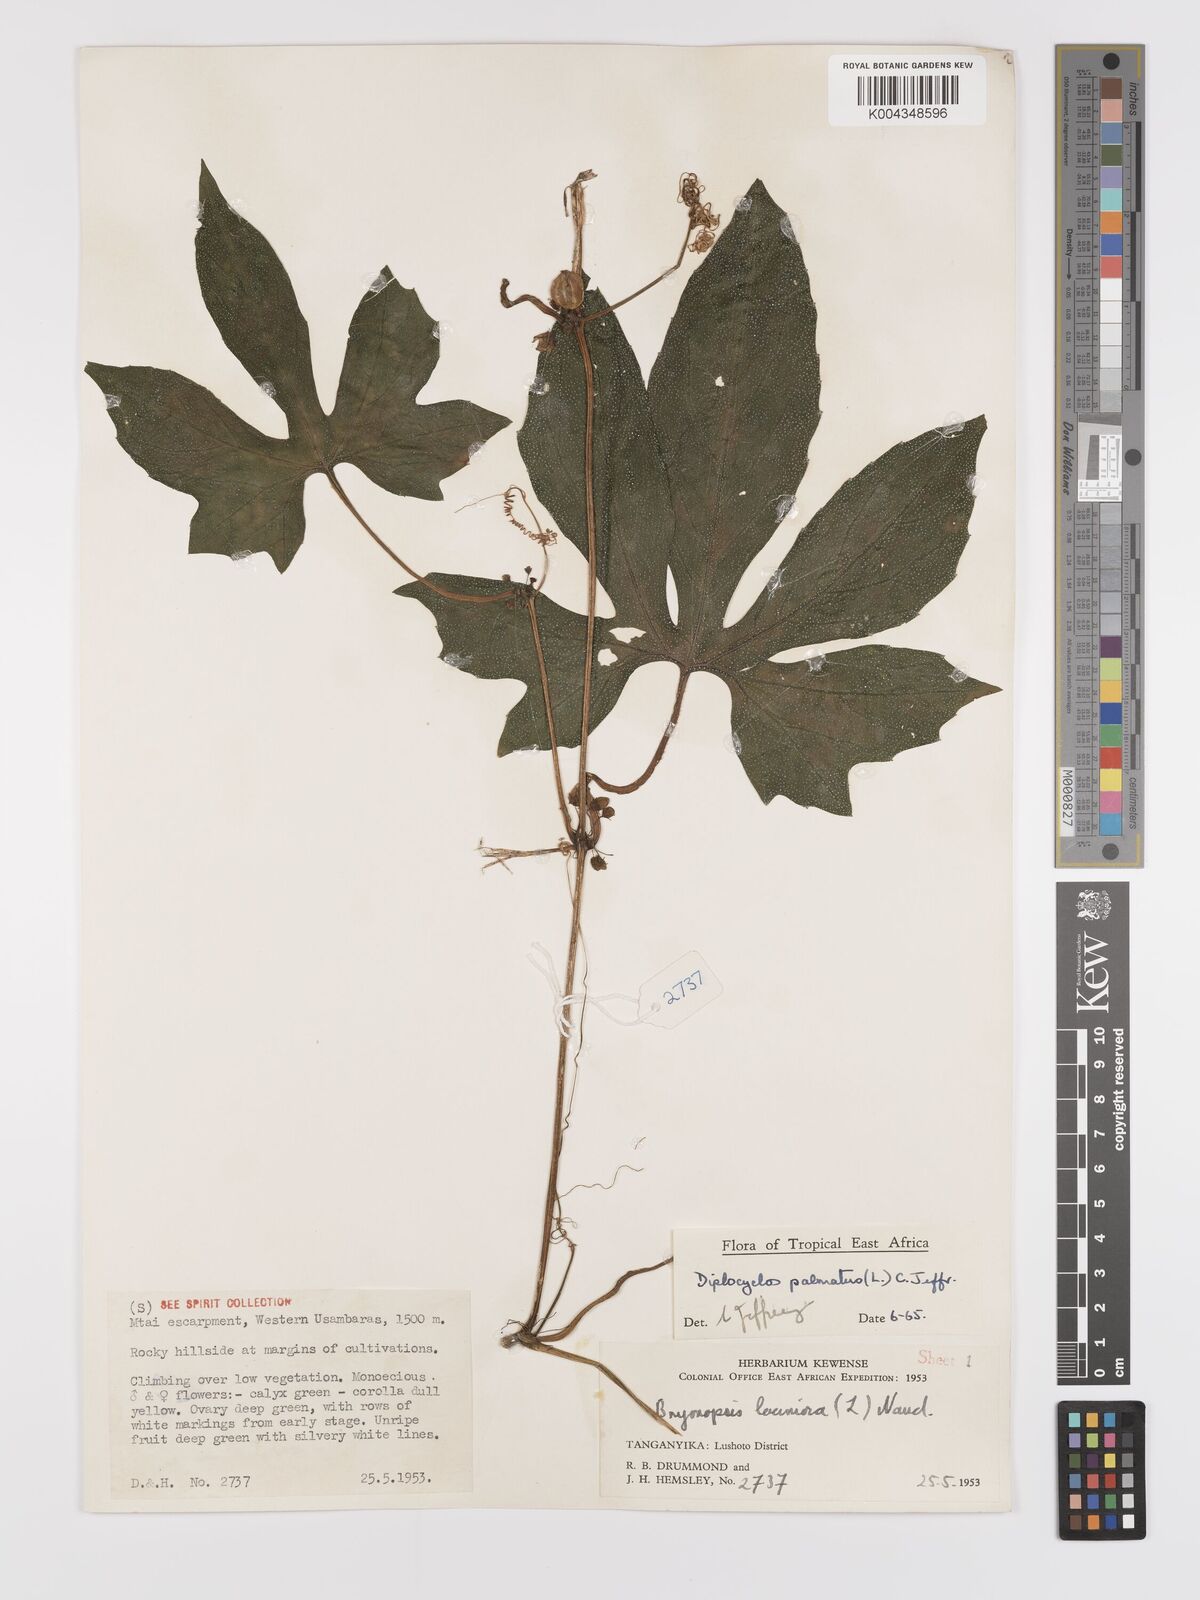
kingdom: Plantae
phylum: Tracheophyta
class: Magnoliopsida
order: Cucurbitales
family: Cucurbitaceae
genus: Diplocyclos
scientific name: Diplocyclos palmatus
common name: Striped-cucumber
